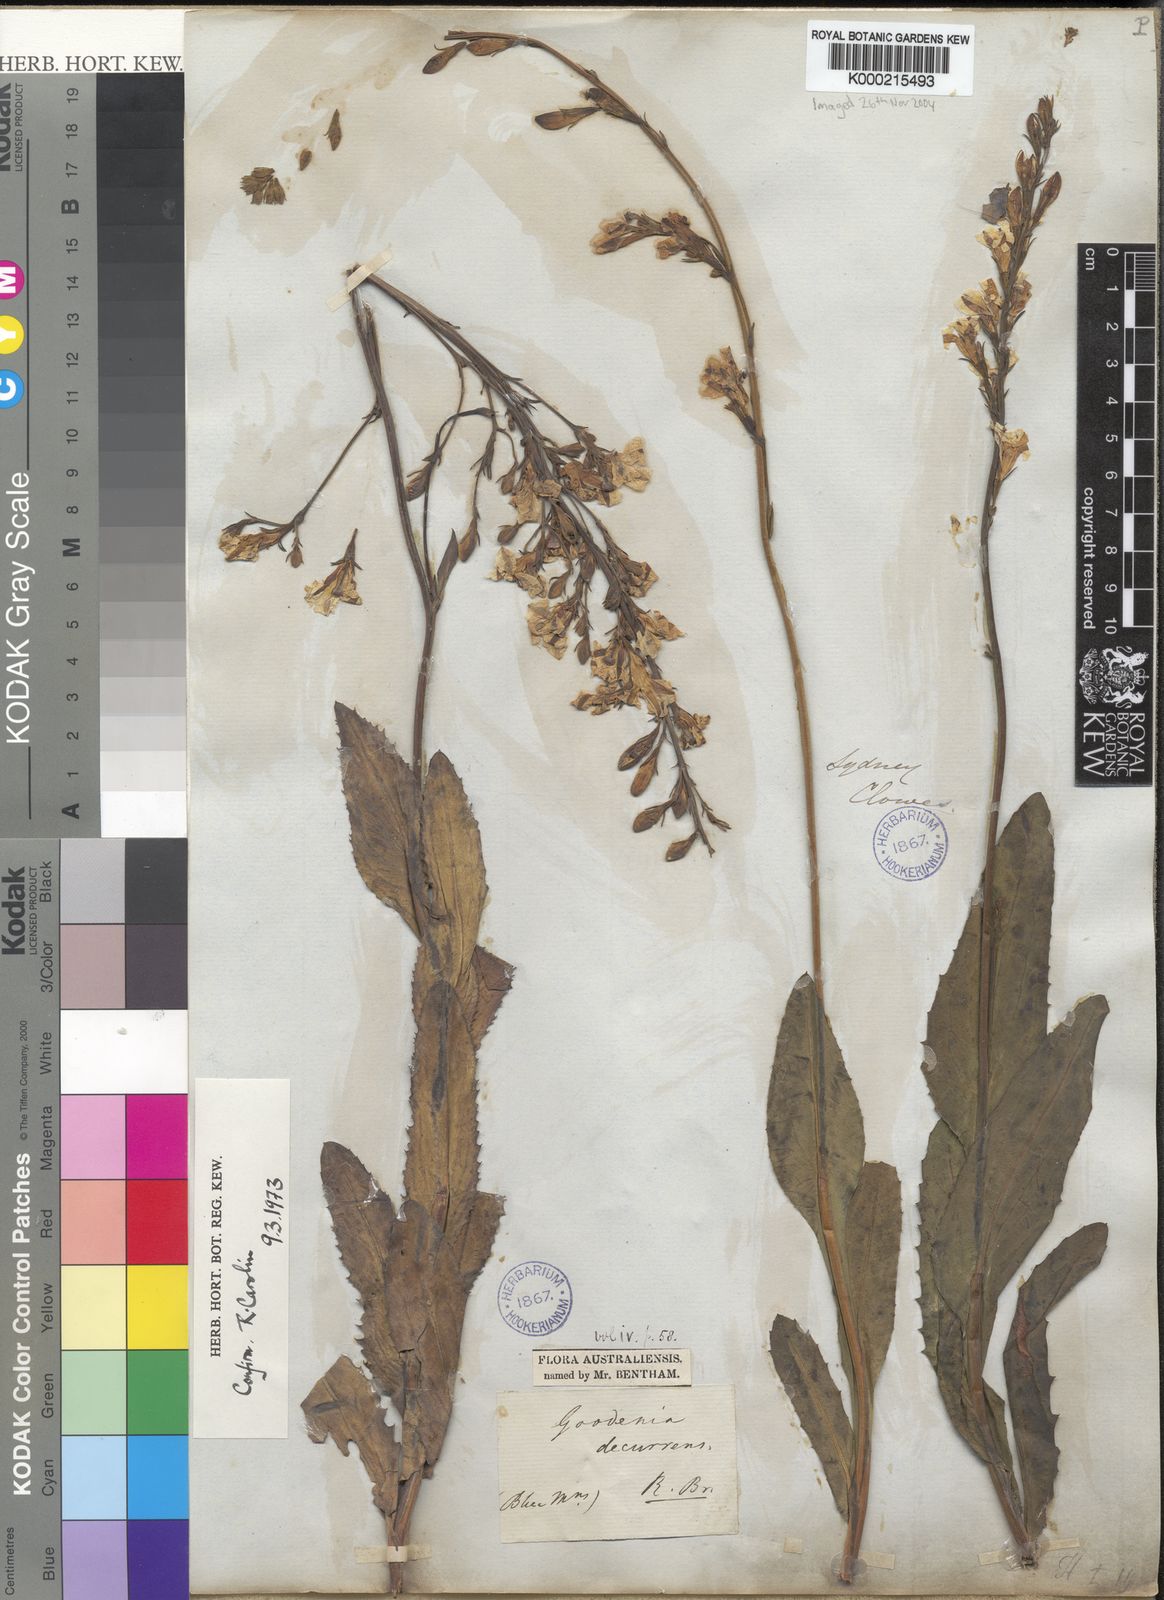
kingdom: Plantae
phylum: Tracheophyta
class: Magnoliopsida
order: Asterales
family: Goodeniaceae
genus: Goodenia
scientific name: Goodenia decurrens
